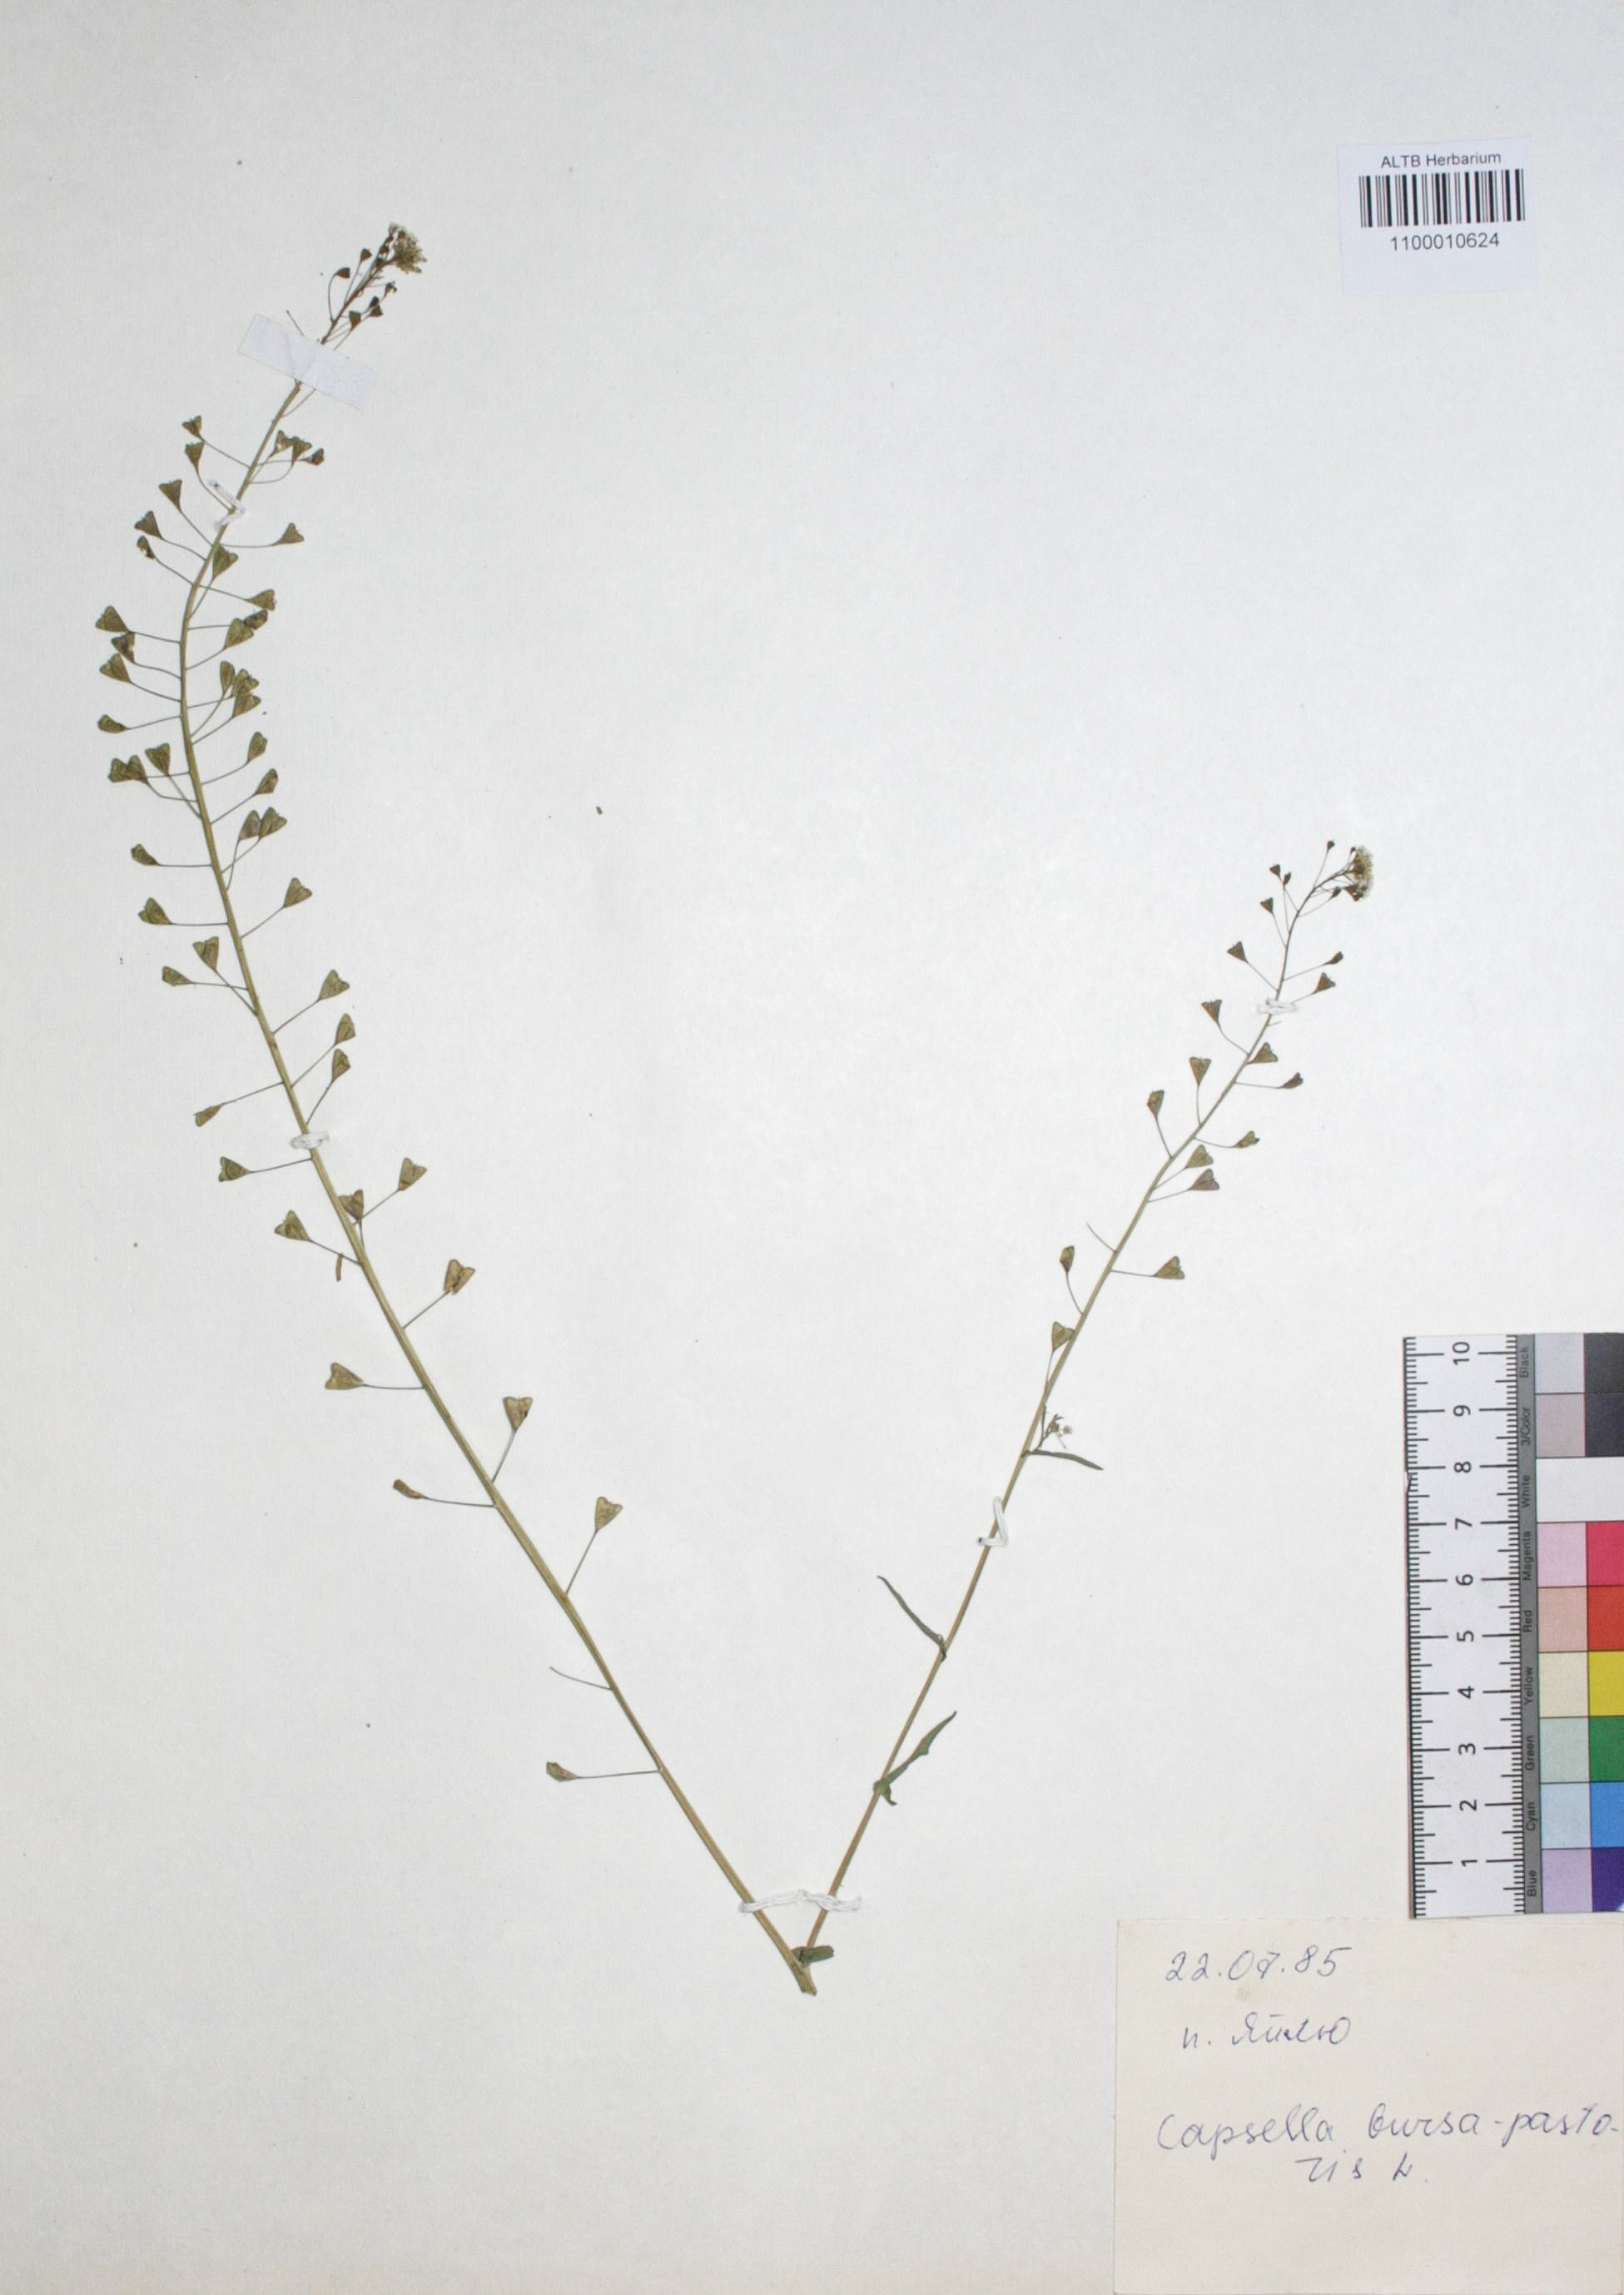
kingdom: Plantae
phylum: Tracheophyta
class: Magnoliopsida
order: Brassicales
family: Brassicaceae
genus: Capsella
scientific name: Capsella bursa-pastoris
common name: Shepherd's purse
